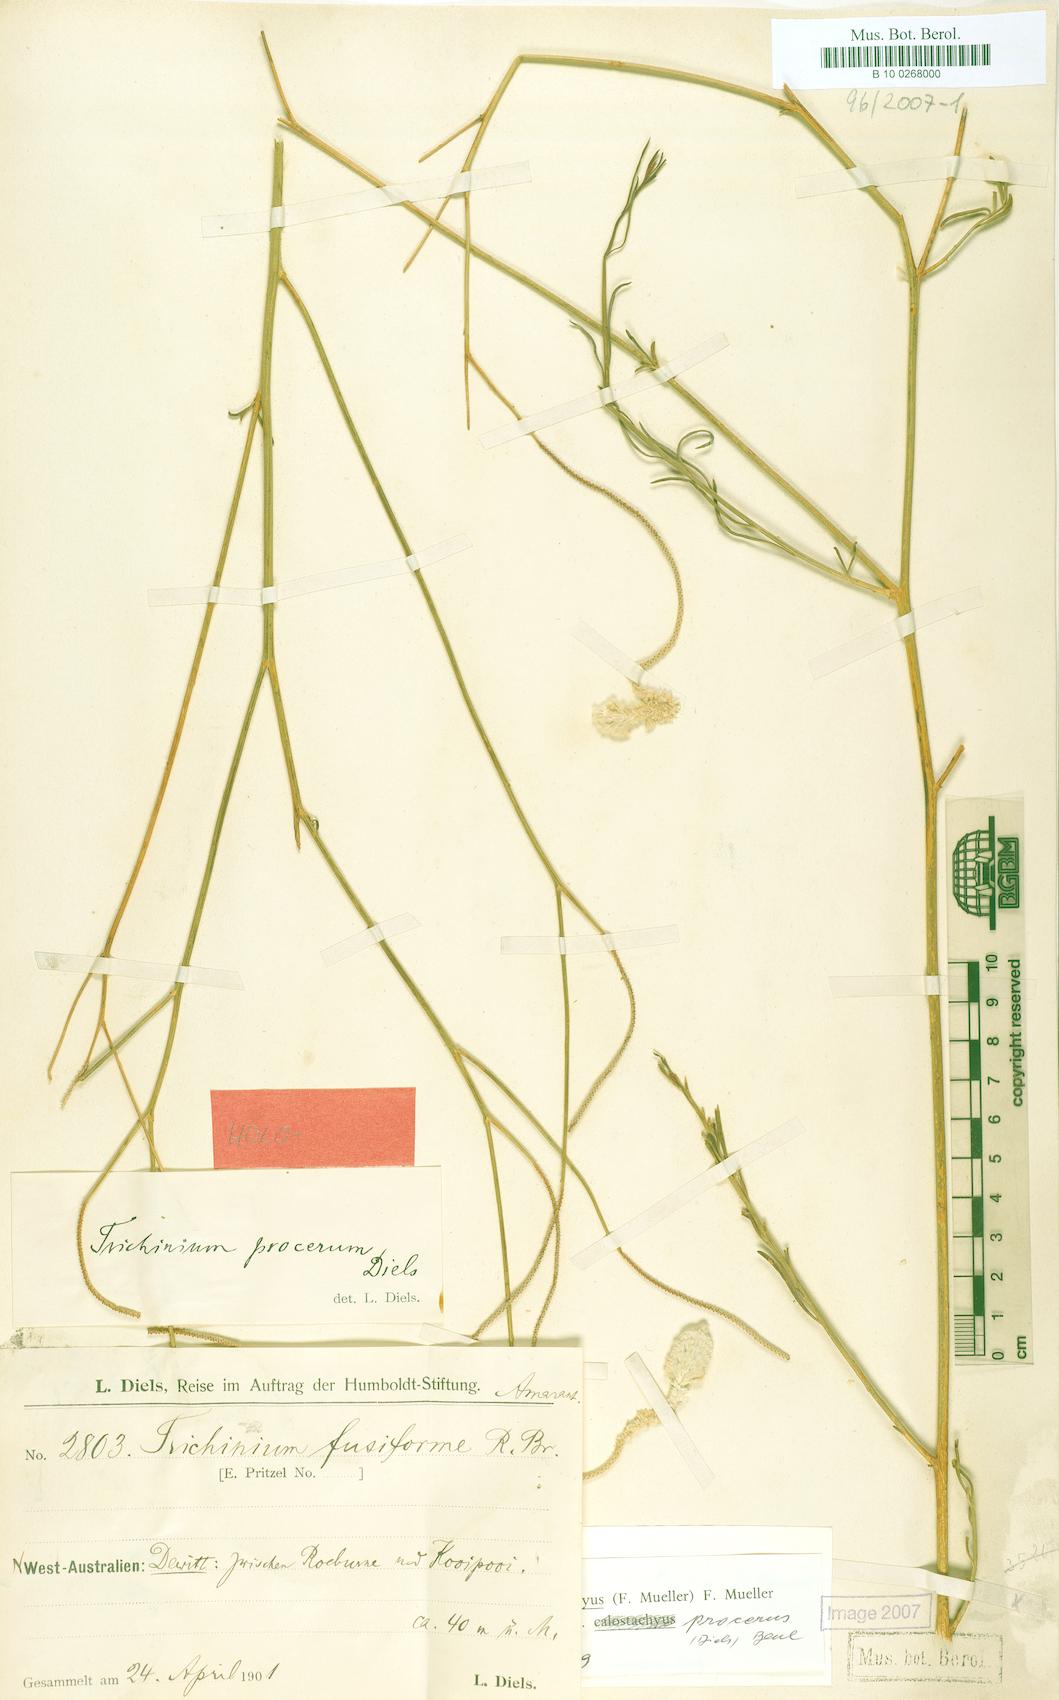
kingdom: Plantae
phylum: Tracheophyta
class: Magnoliopsida
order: Caryophyllales
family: Amaranthaceae
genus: Ptilotus
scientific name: Ptilotus calostachyus
